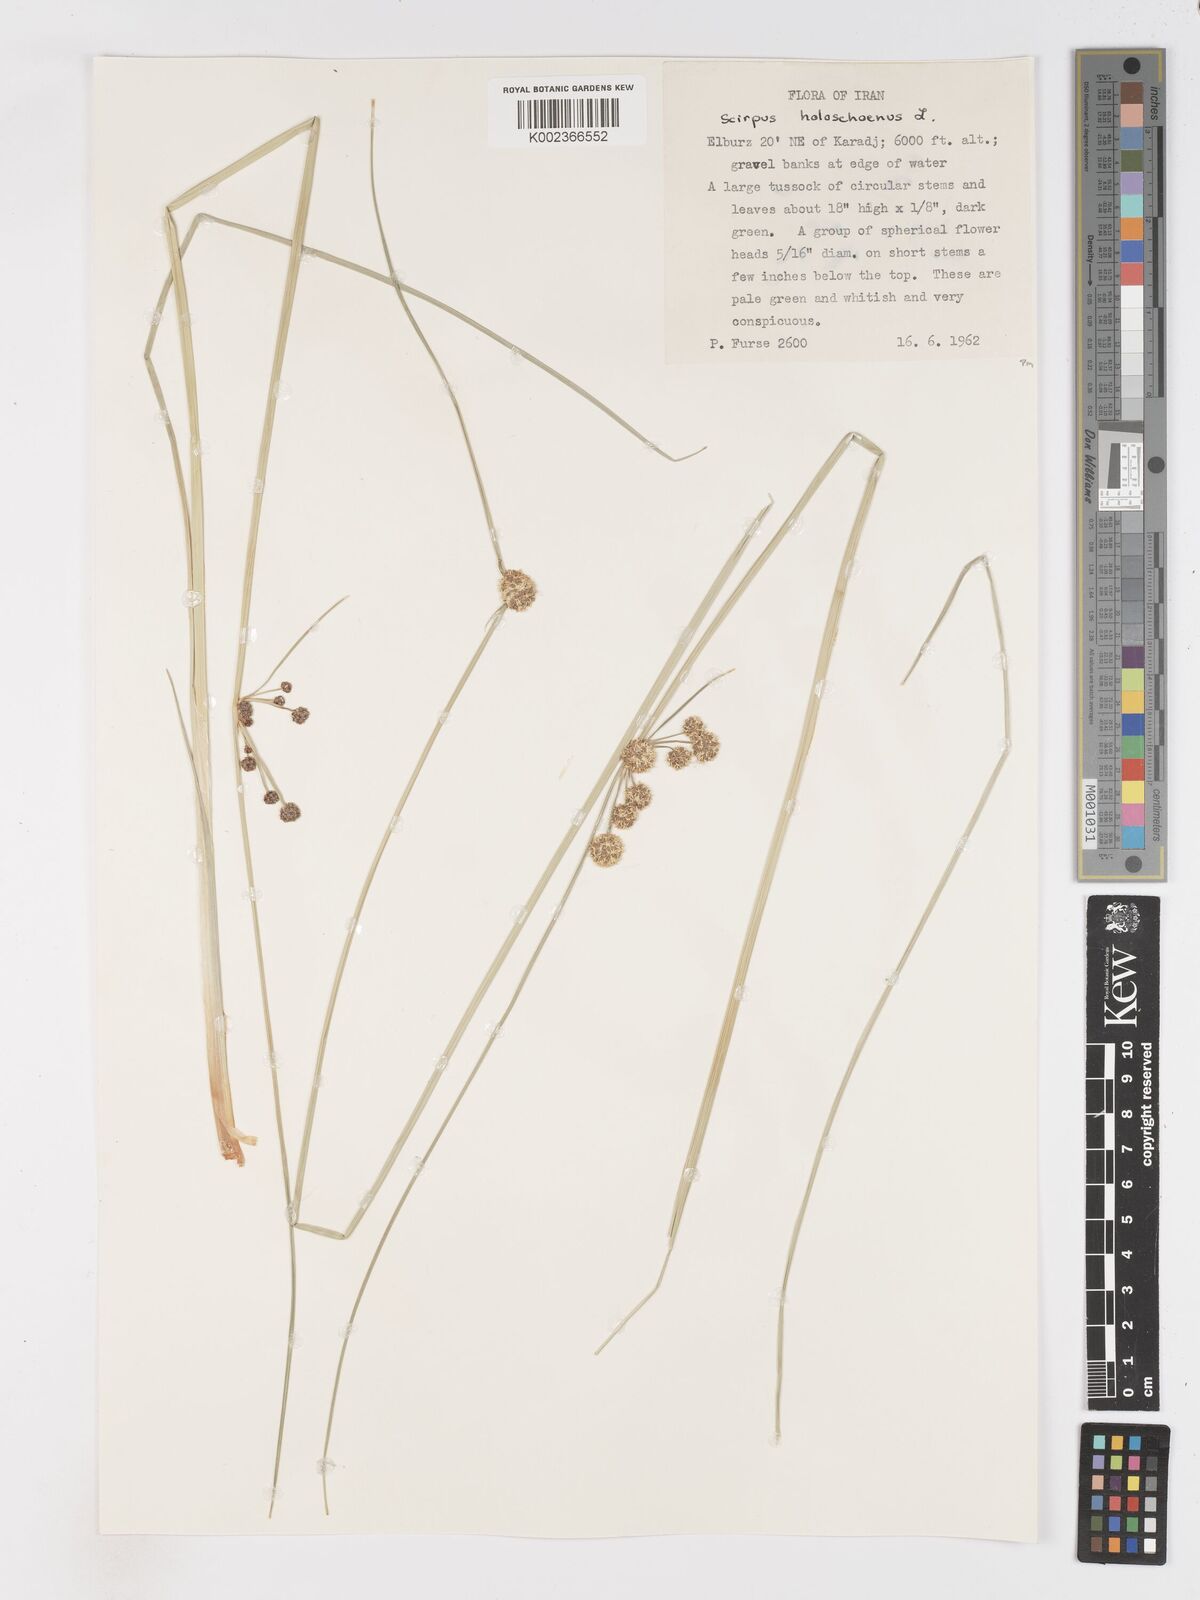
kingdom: Plantae
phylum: Tracheophyta
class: Liliopsida
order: Poales
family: Cyperaceae
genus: Scirpoides
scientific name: Scirpoides holoschoenus
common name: Round-headed club-rush
